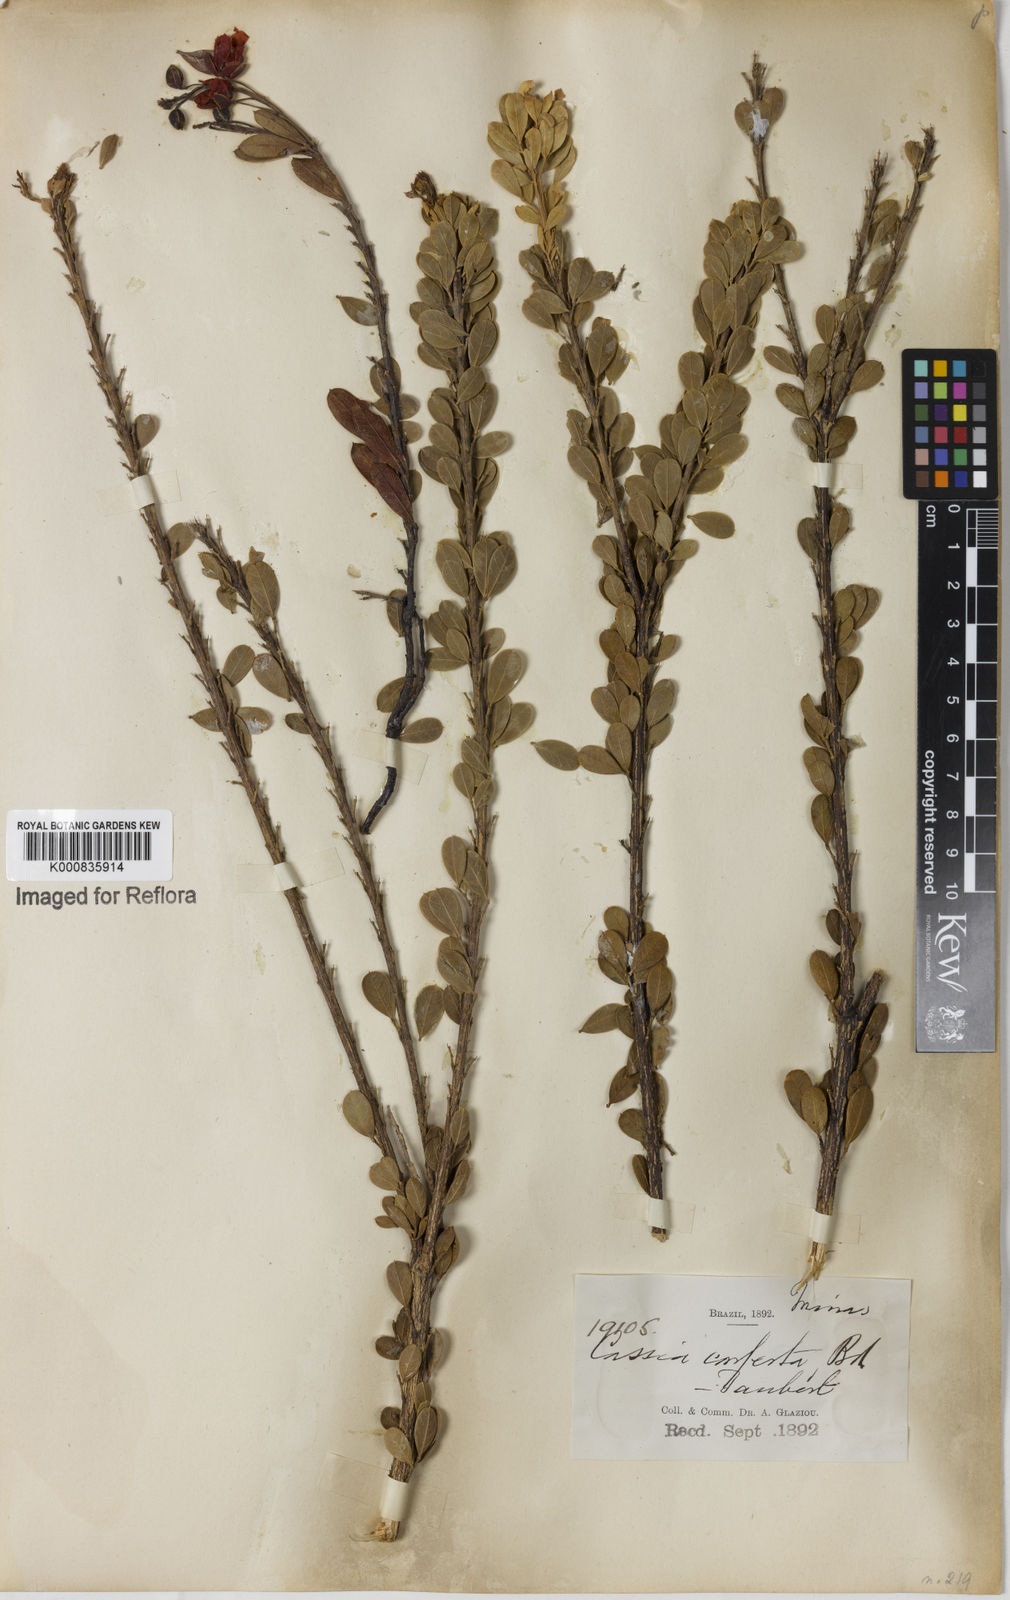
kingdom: Plantae
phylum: Tracheophyta
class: Magnoliopsida
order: Fabales
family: Fabaceae
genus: Chamaecrista
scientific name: Chamaecrista conferta
